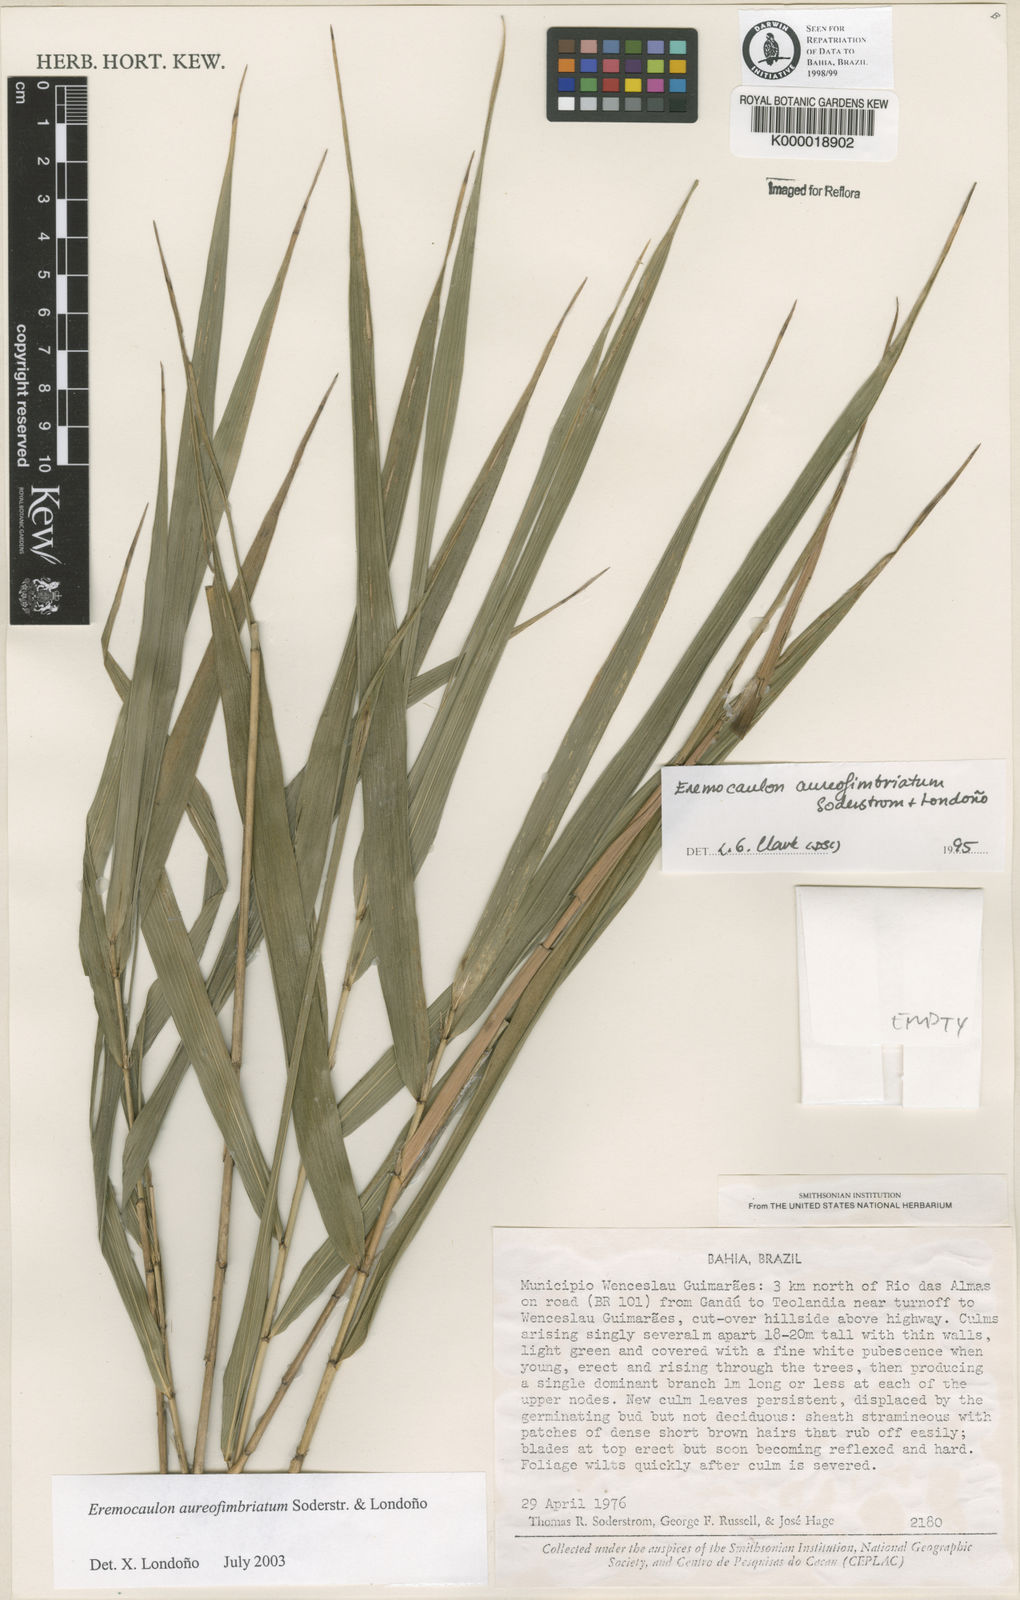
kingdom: Plantae
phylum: Tracheophyta
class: Liliopsida
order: Poales
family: Poaceae
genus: Eremocaulon
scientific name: Eremocaulon
